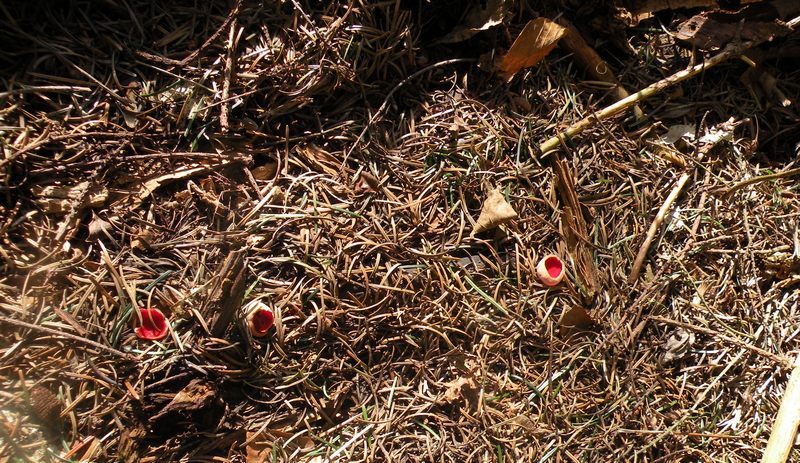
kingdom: Fungi
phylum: Ascomycota
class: Pezizomycetes
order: Pezizales
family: Sarcoscyphaceae
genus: Sarcoscypha
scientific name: Sarcoscypha austriaca
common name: krølhåret pragtbæger
